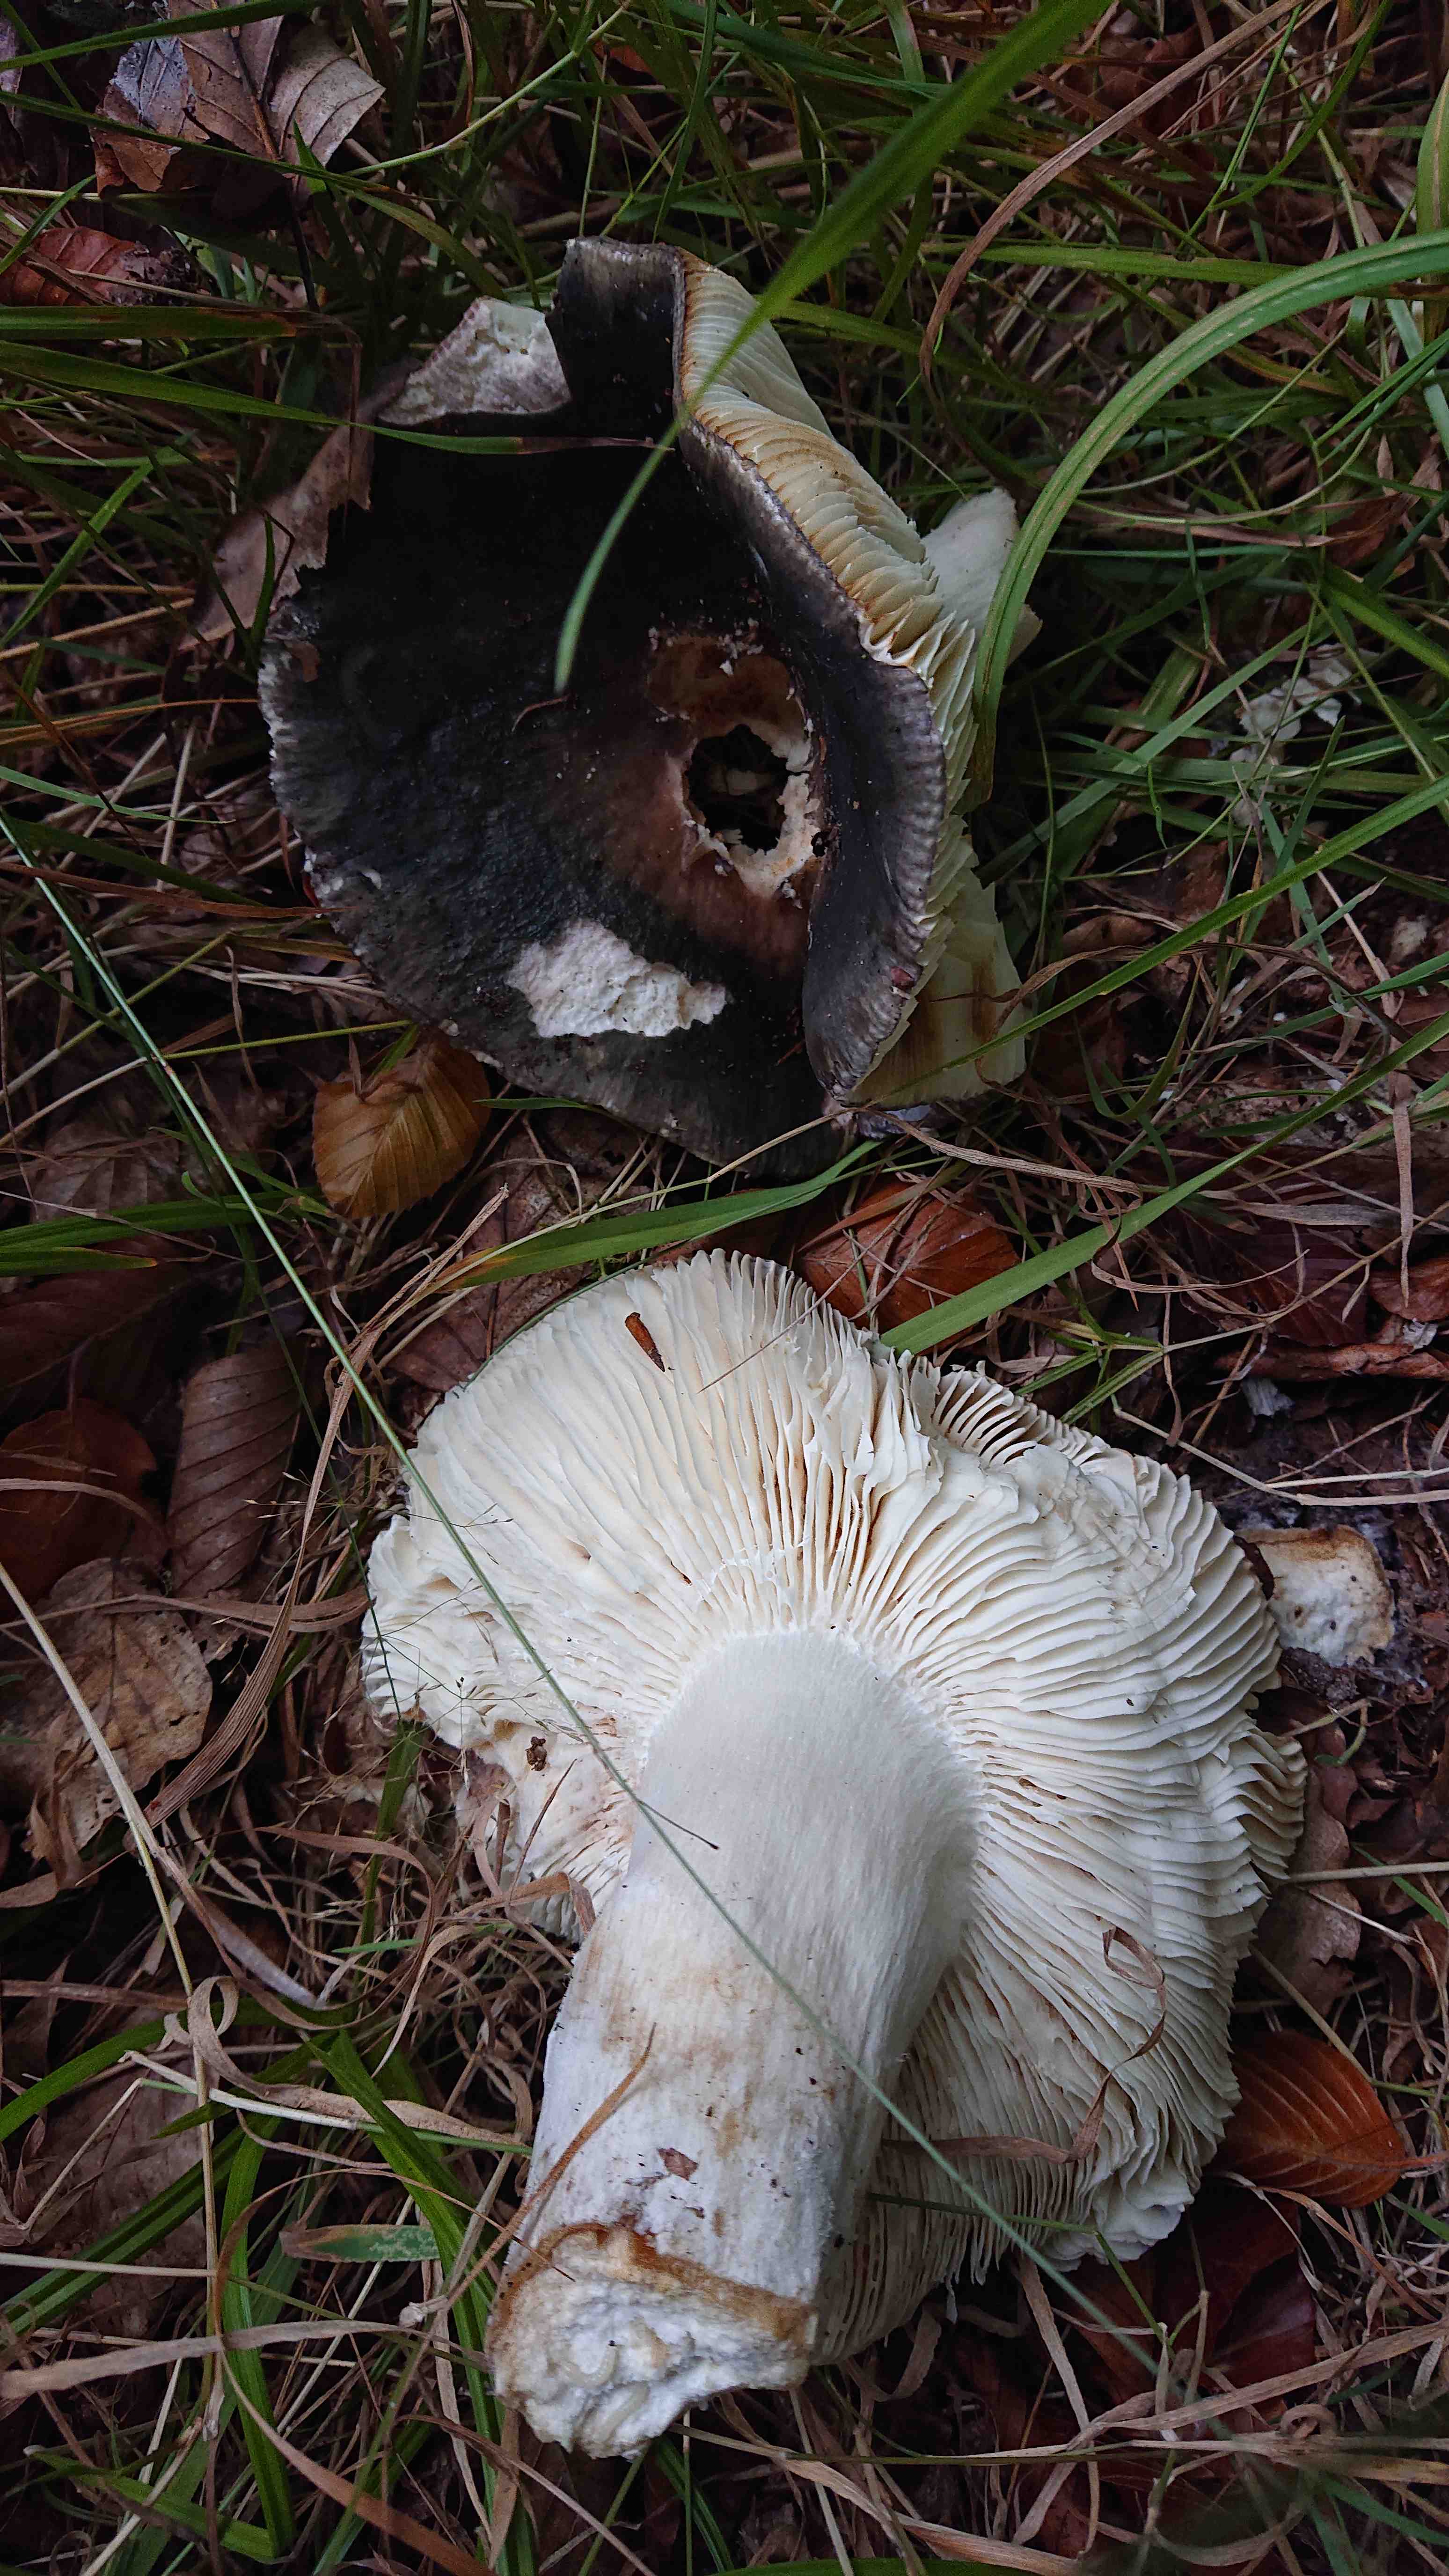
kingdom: Fungi
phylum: Basidiomycota
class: Agaricomycetes
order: Russulales
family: Russulaceae
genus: Russula
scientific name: Russula
